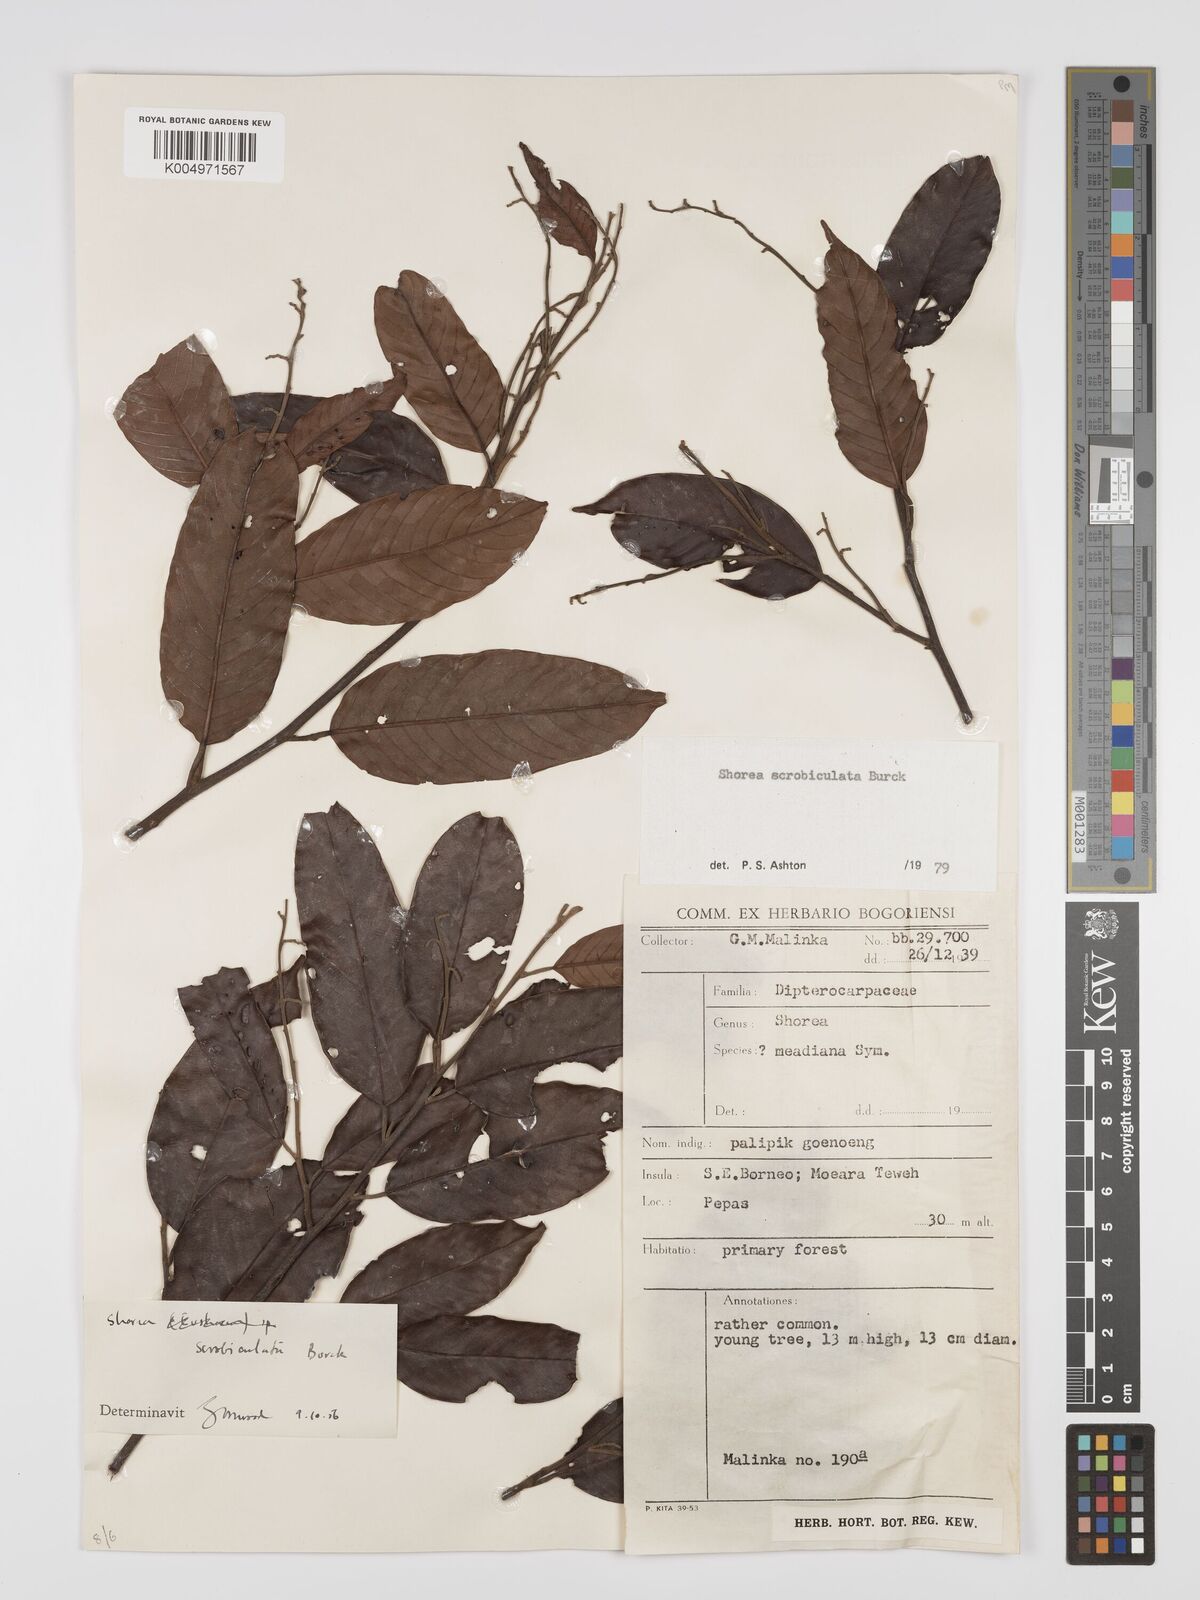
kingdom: Plantae
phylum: Tracheophyta
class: Magnoliopsida
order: Malvales
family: Dipterocarpaceae
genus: Shorea
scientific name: Shorea scrobiculata
